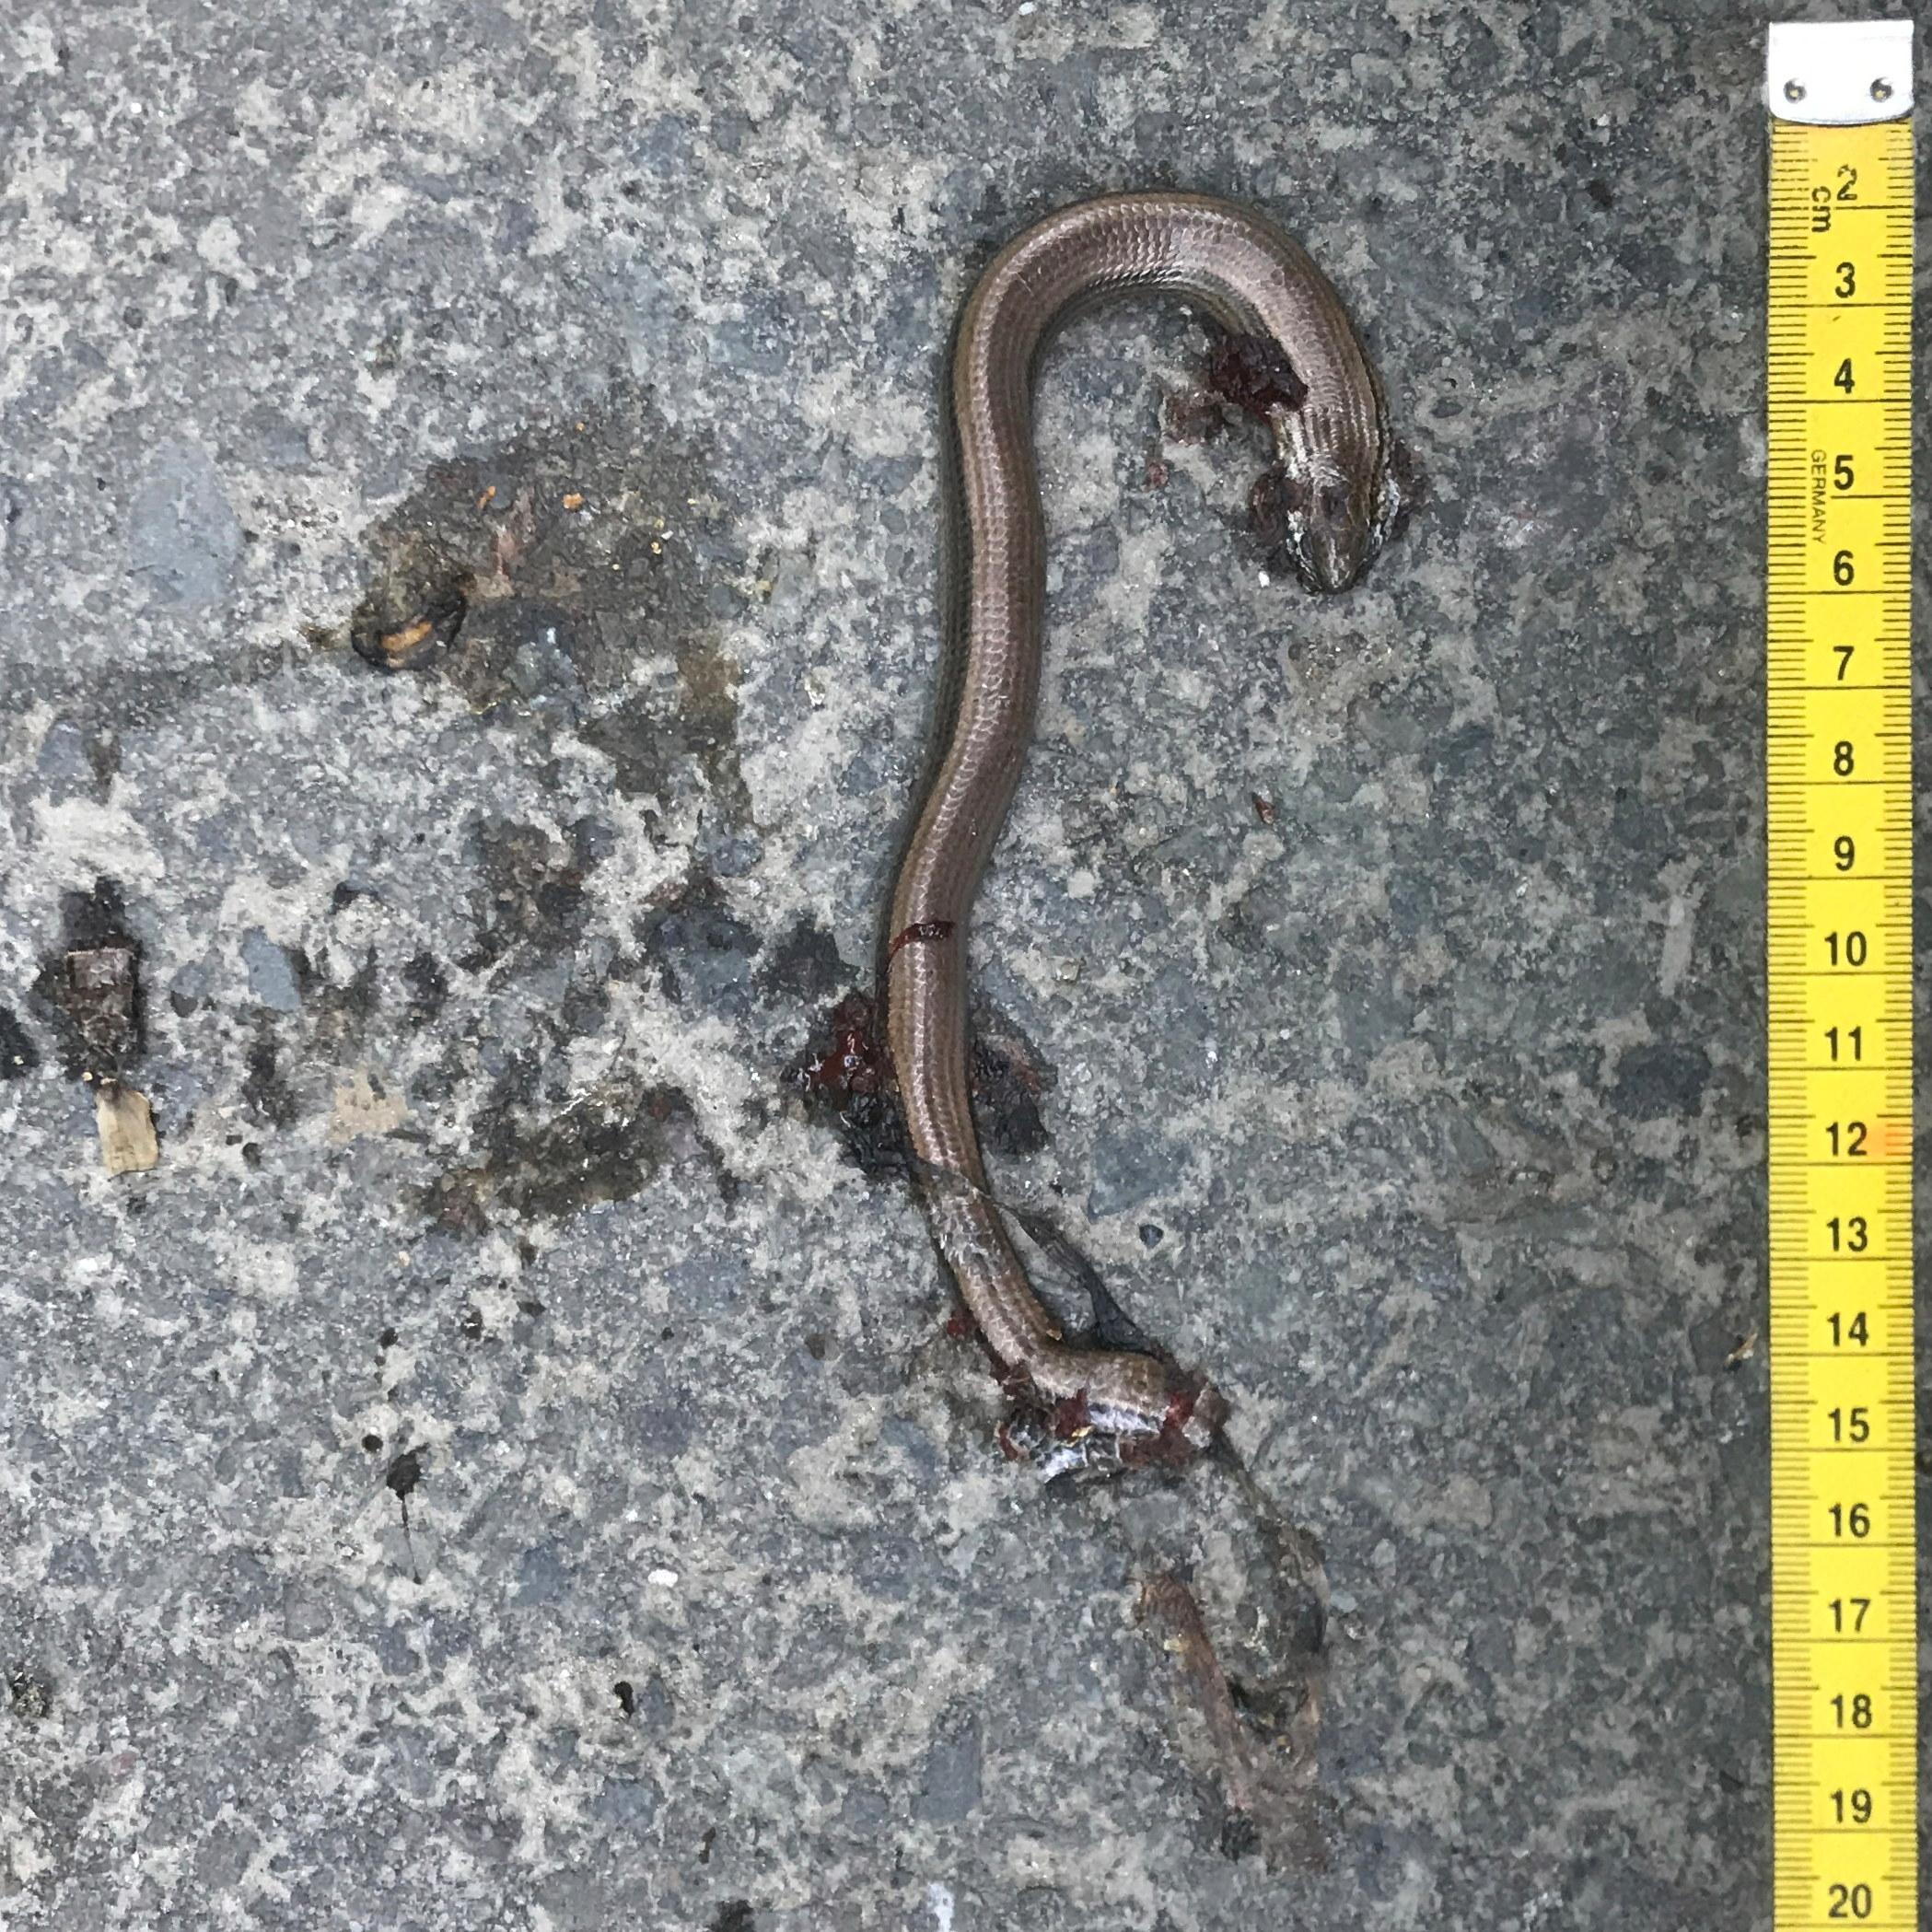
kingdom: Animalia
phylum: Chordata
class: Squamata
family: Anguidae
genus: Anguis
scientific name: Anguis fragilis
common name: Slow worm
